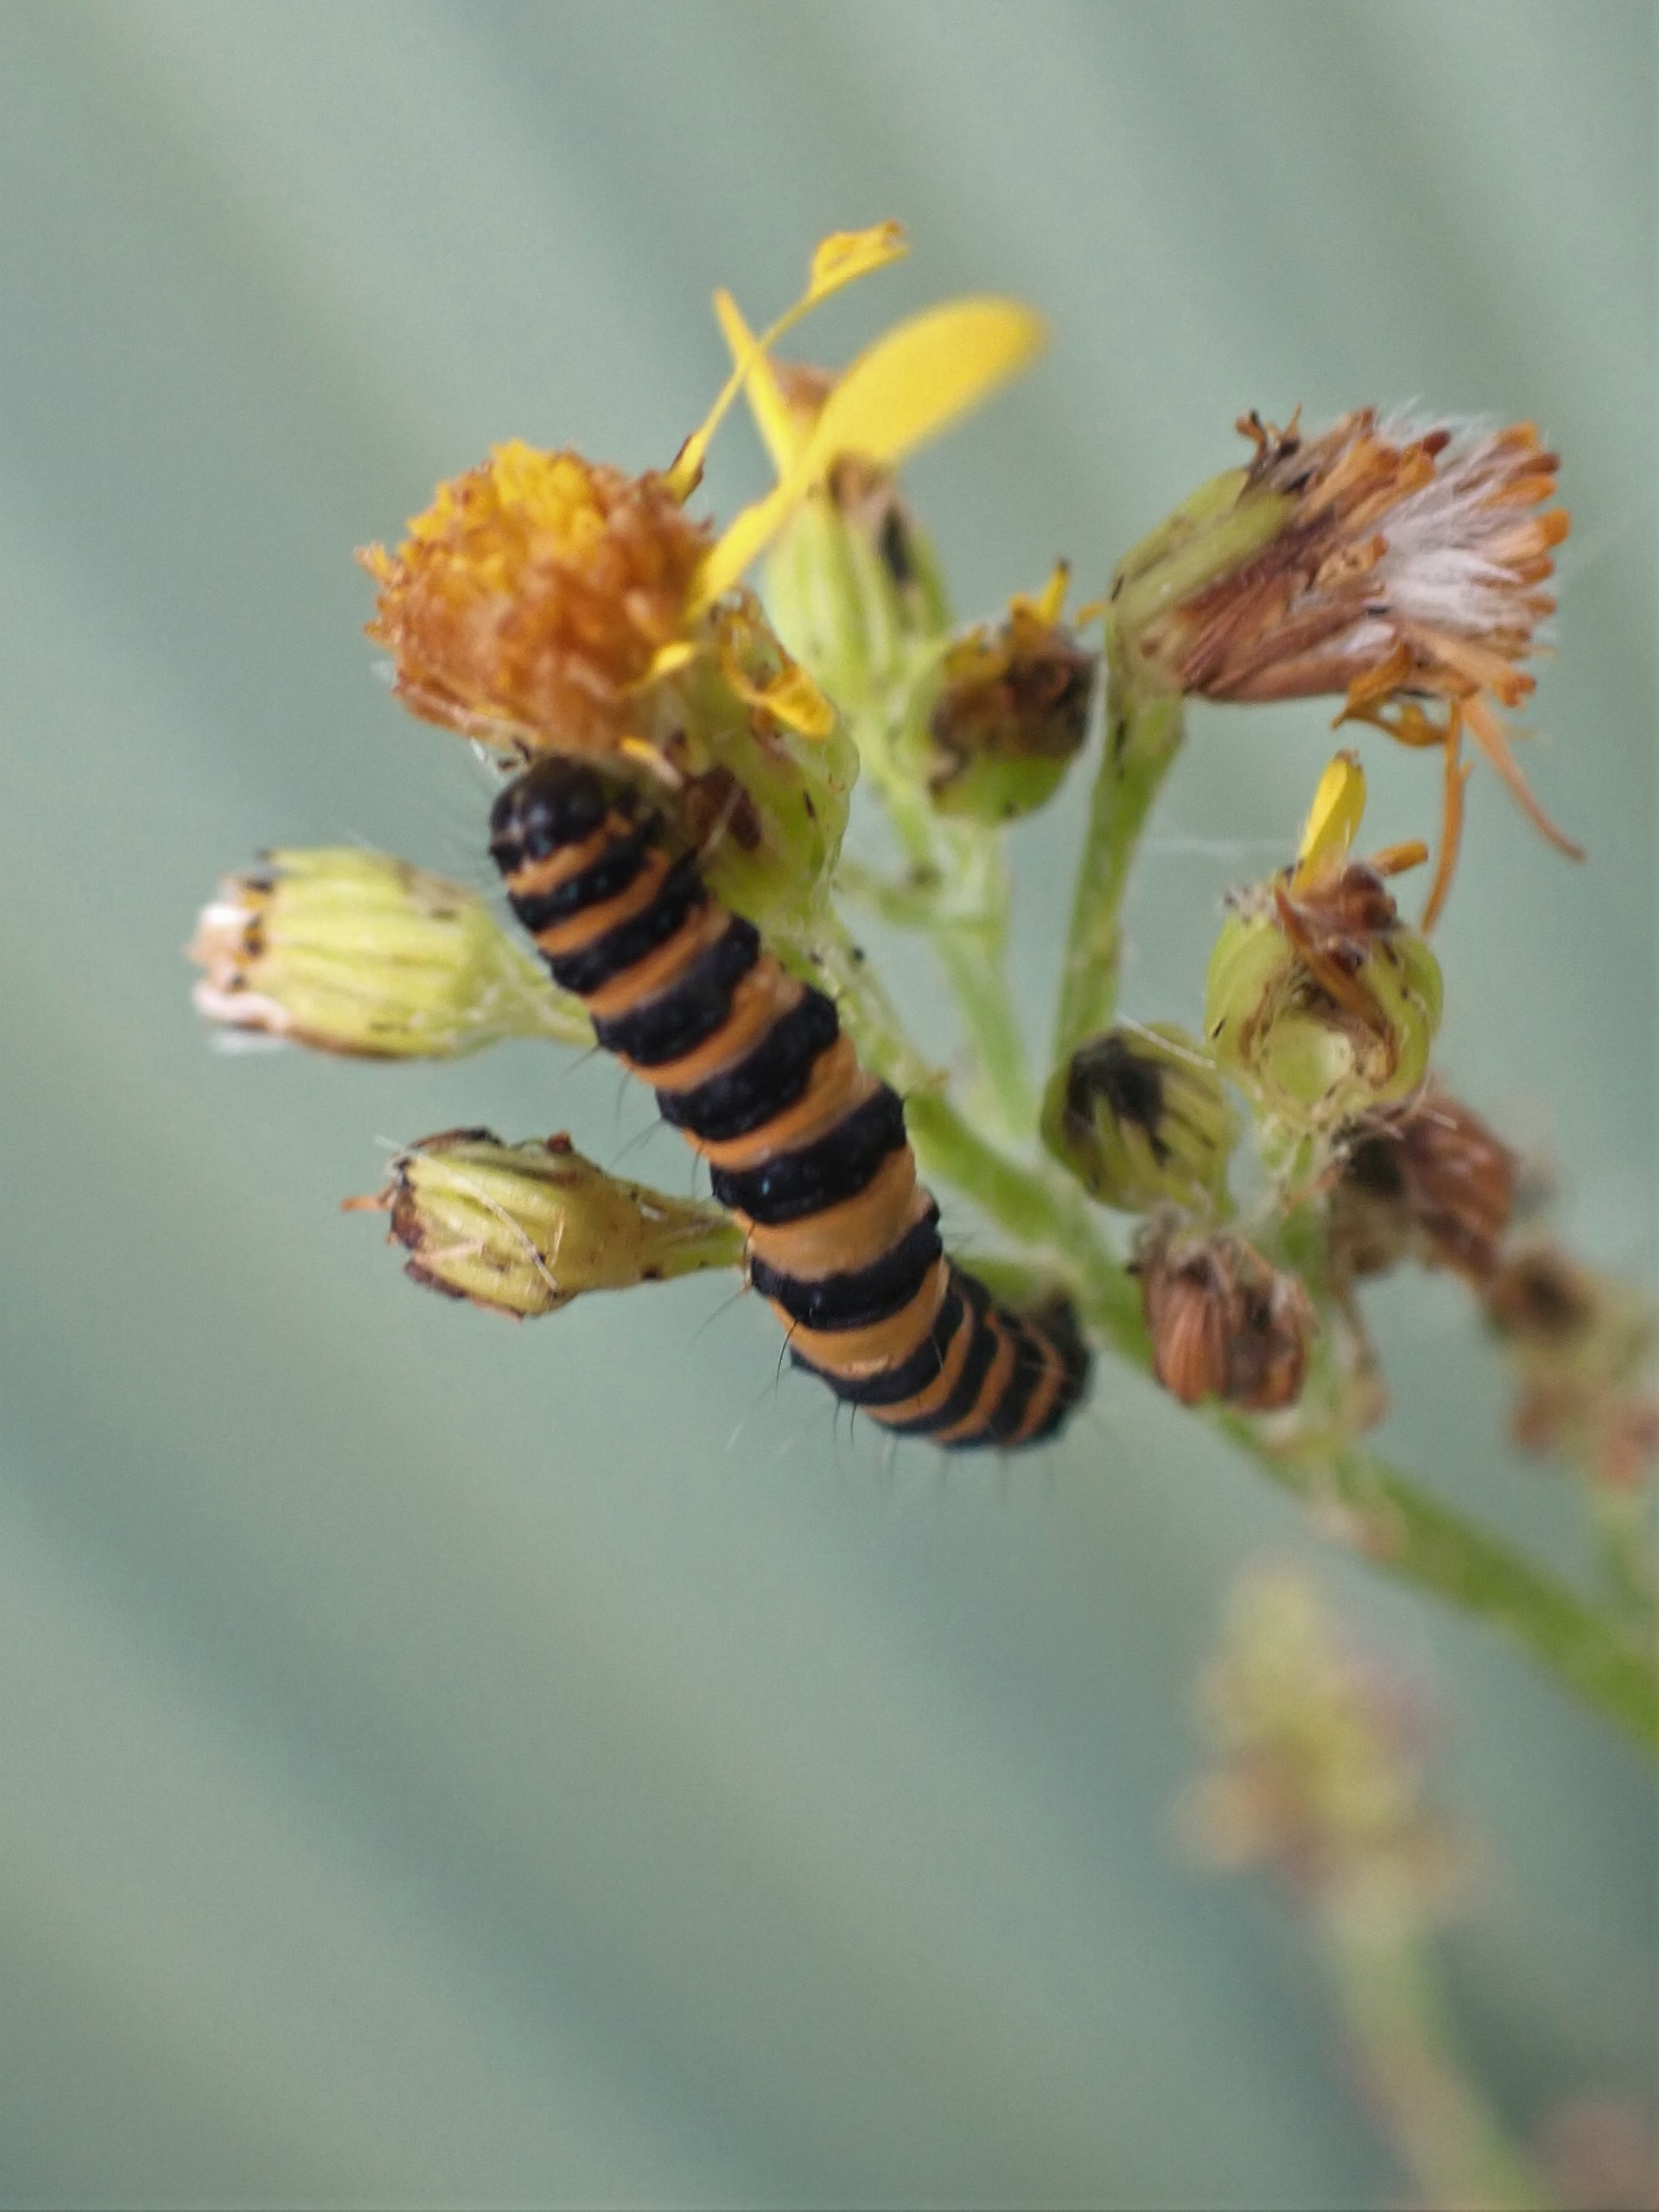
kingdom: Animalia
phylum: Arthropoda
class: Insecta
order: Lepidoptera
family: Erebidae
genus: Tyria
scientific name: Tyria jacobaeae
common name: Blodplet
